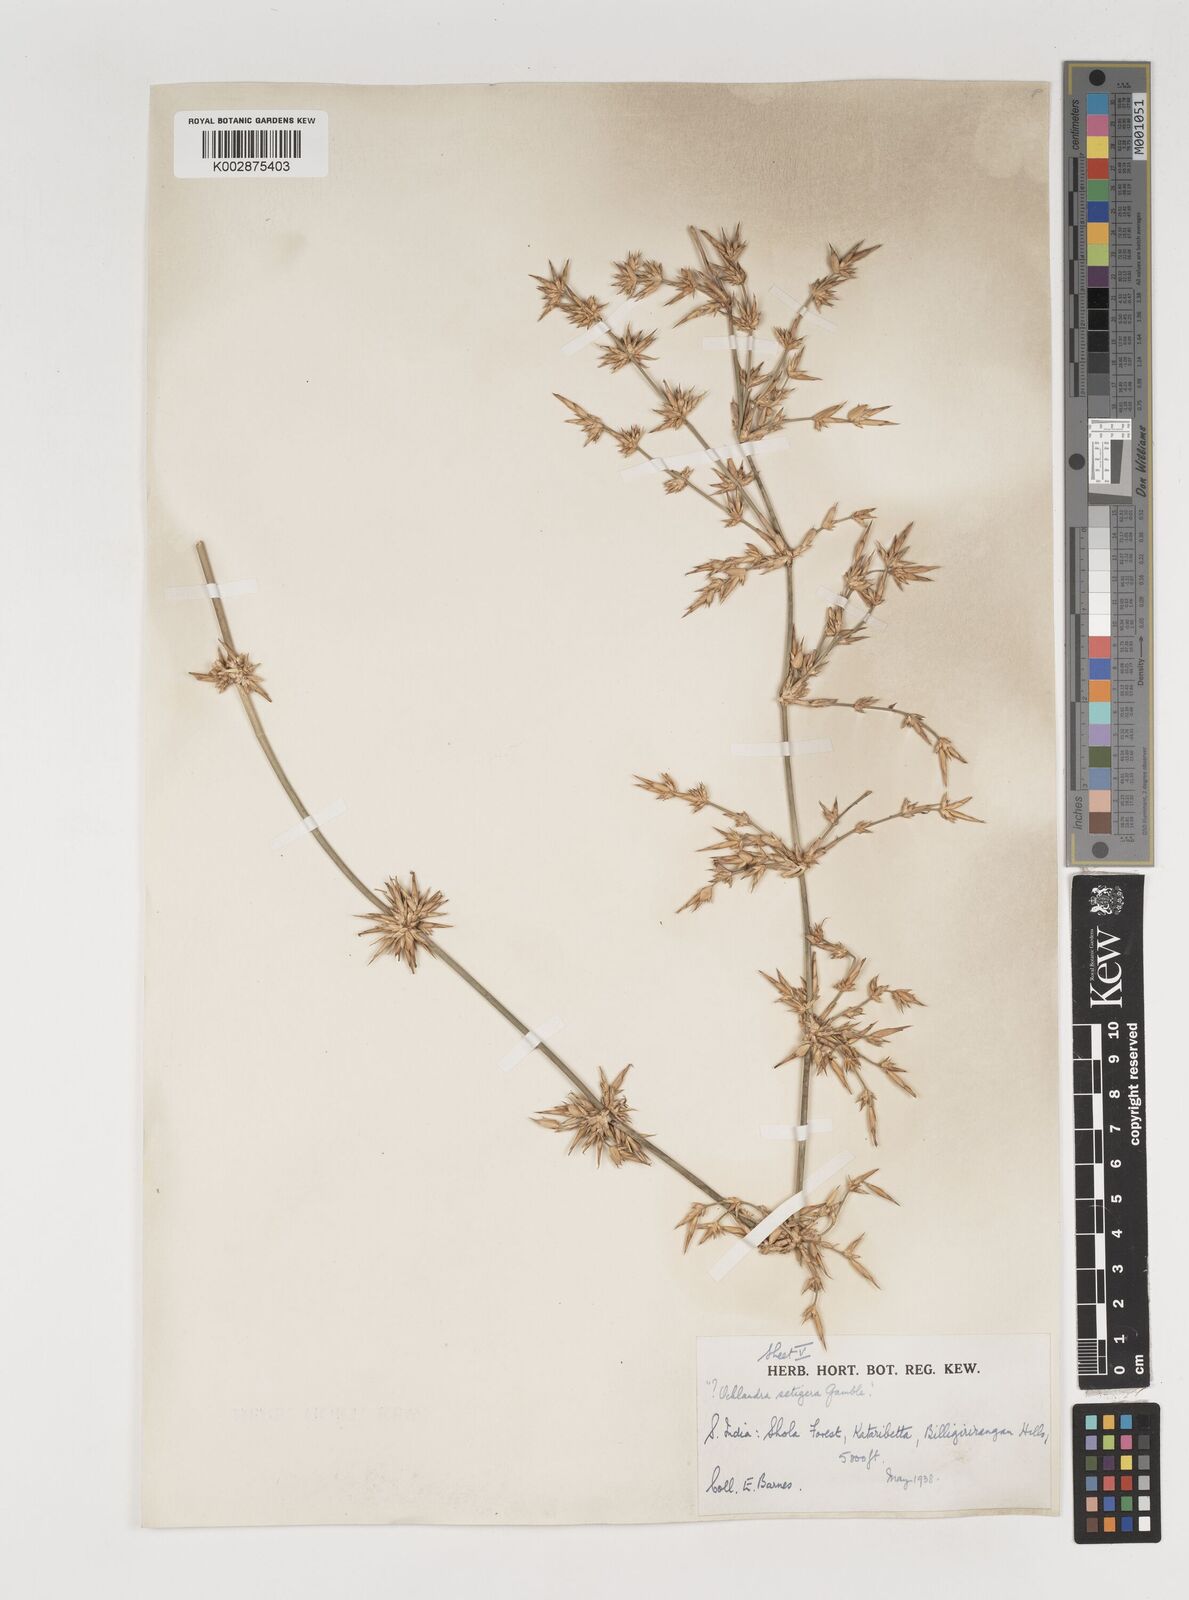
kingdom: Plantae
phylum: Tracheophyta
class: Liliopsida
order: Poales
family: Poaceae
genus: Dendrocalamus
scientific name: Dendrocalamus
